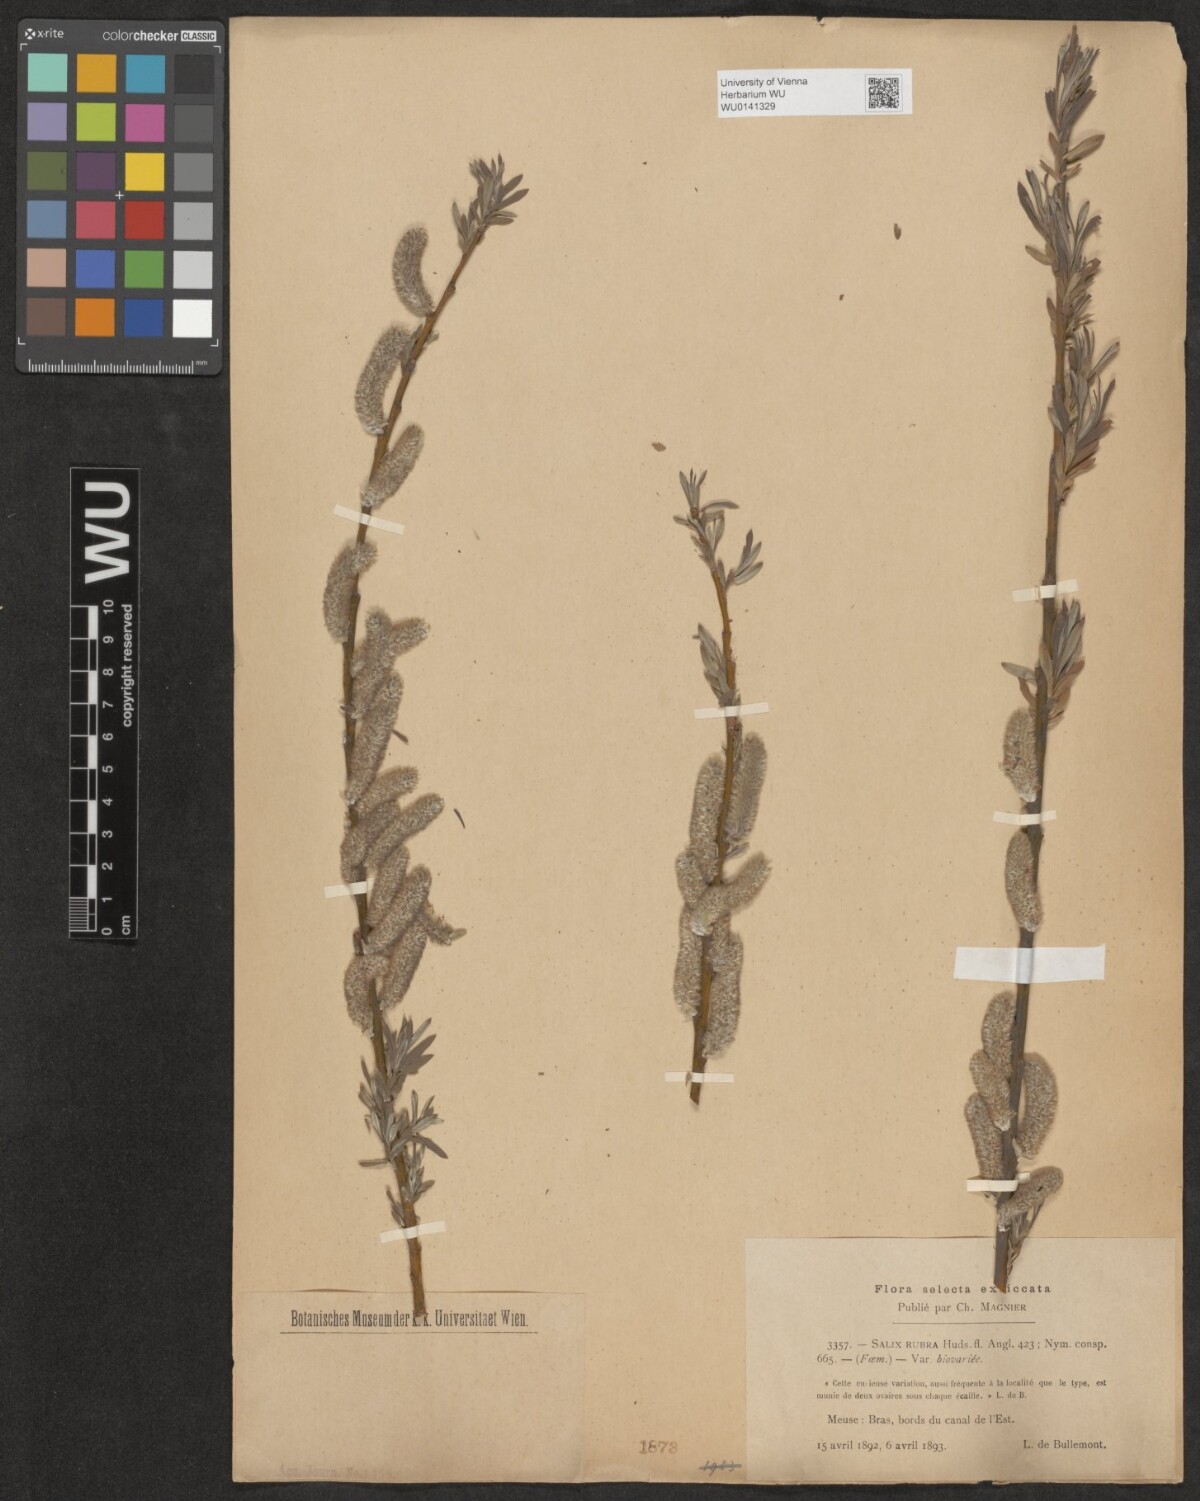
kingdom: Plantae
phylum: Tracheophyta
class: Magnoliopsida
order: Malpighiales
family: Salicaceae
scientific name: Salicaceae
